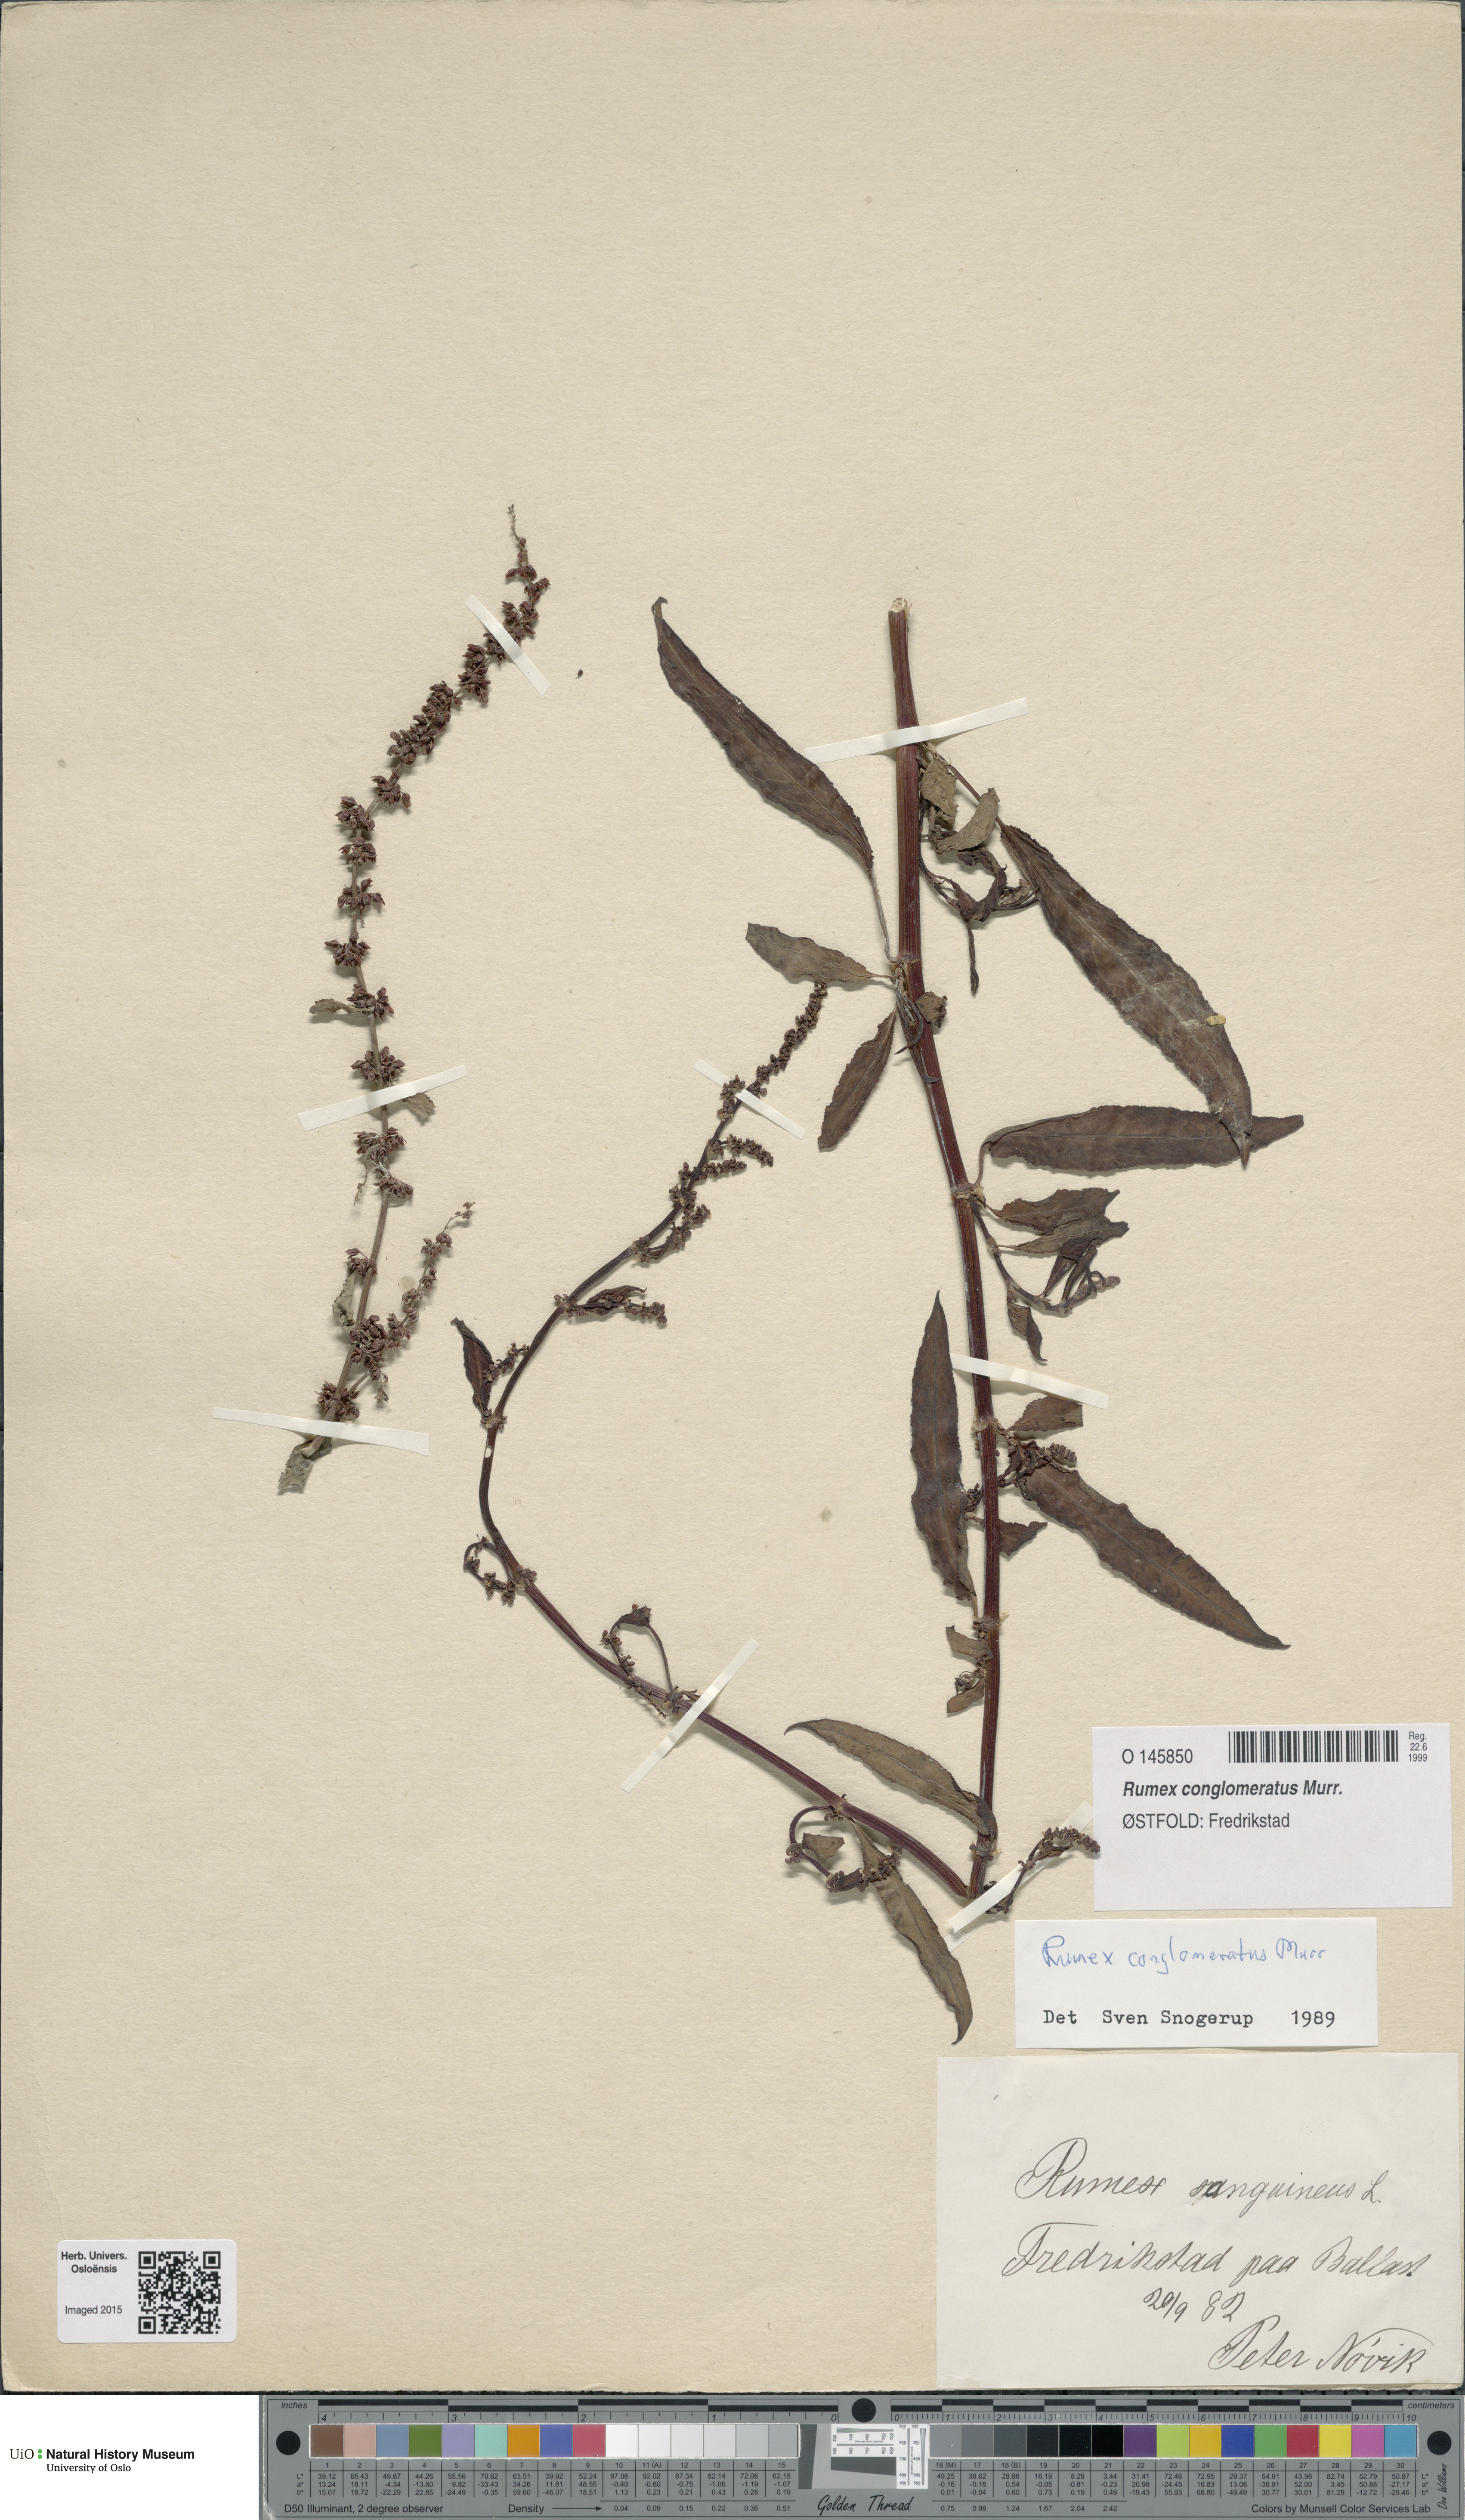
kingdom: Plantae
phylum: Tracheophyta
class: Magnoliopsida
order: Caryophyllales
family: Polygonaceae
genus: Rumex
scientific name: Rumex conglomeratus
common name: Clustered dock
